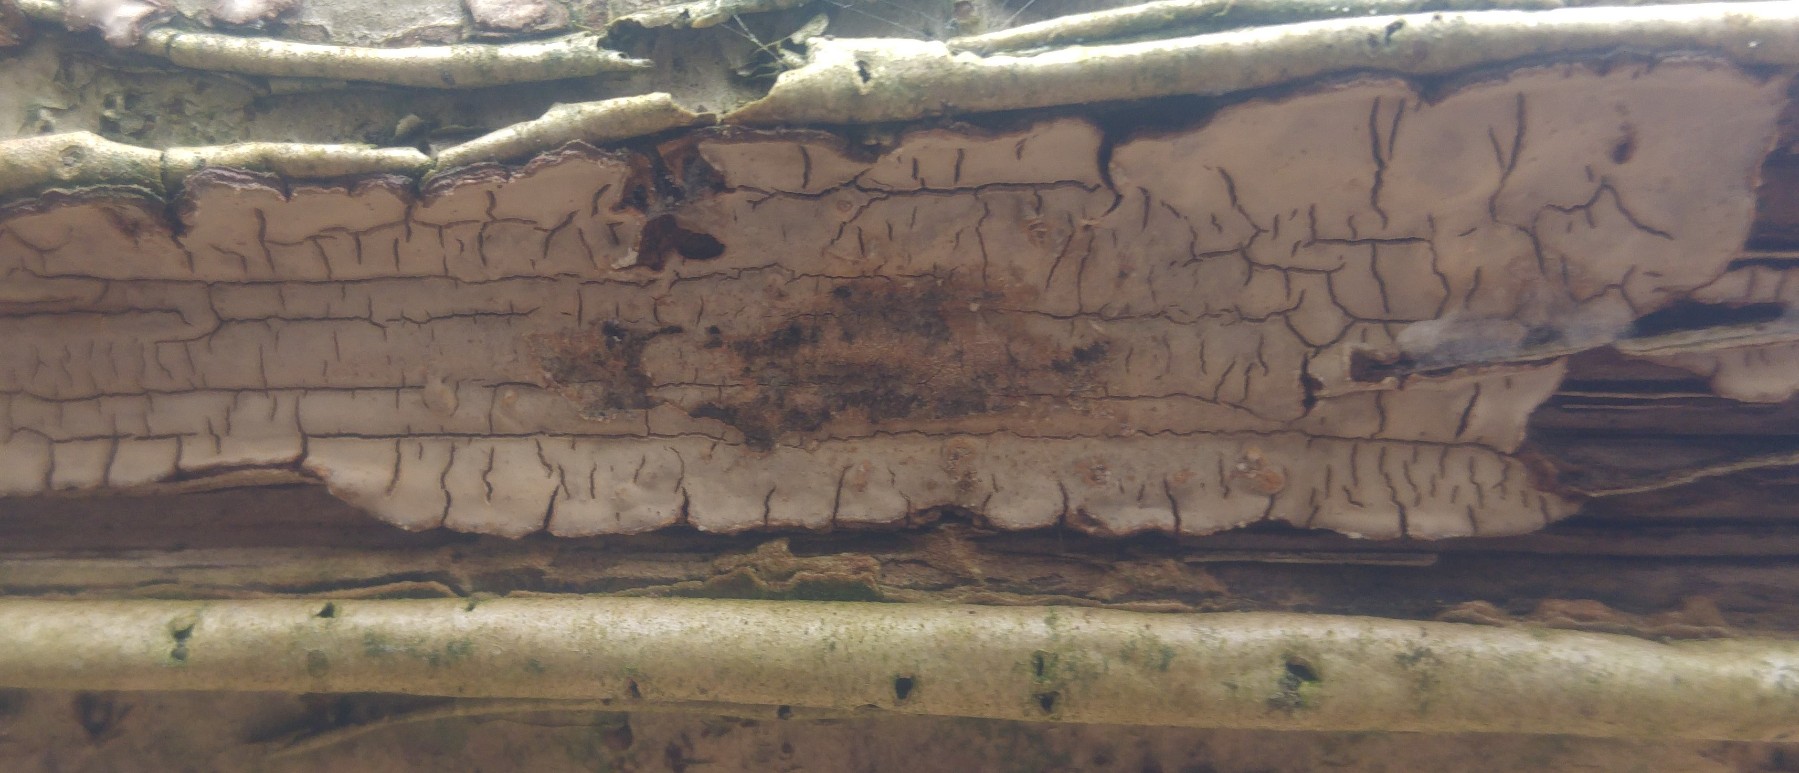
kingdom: Fungi
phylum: Basidiomycota
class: Agaricomycetes
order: Russulales
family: Stereaceae
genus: Stereum
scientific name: Stereum rugosum
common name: rynket lædersvamp
